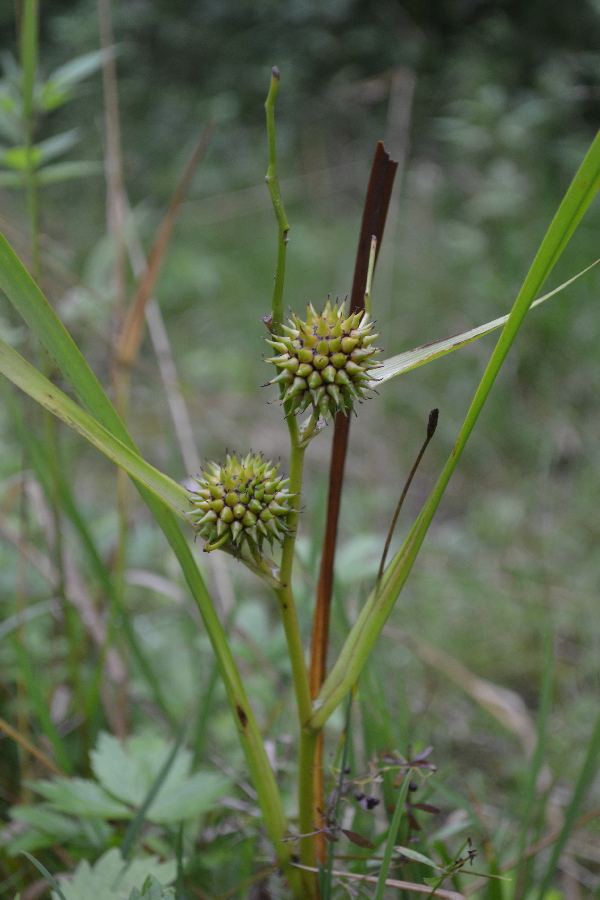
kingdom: Plantae
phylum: Tracheophyta
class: Liliopsida
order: Poales
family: Typhaceae
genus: Sparganium
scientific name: Sparganium erectum
